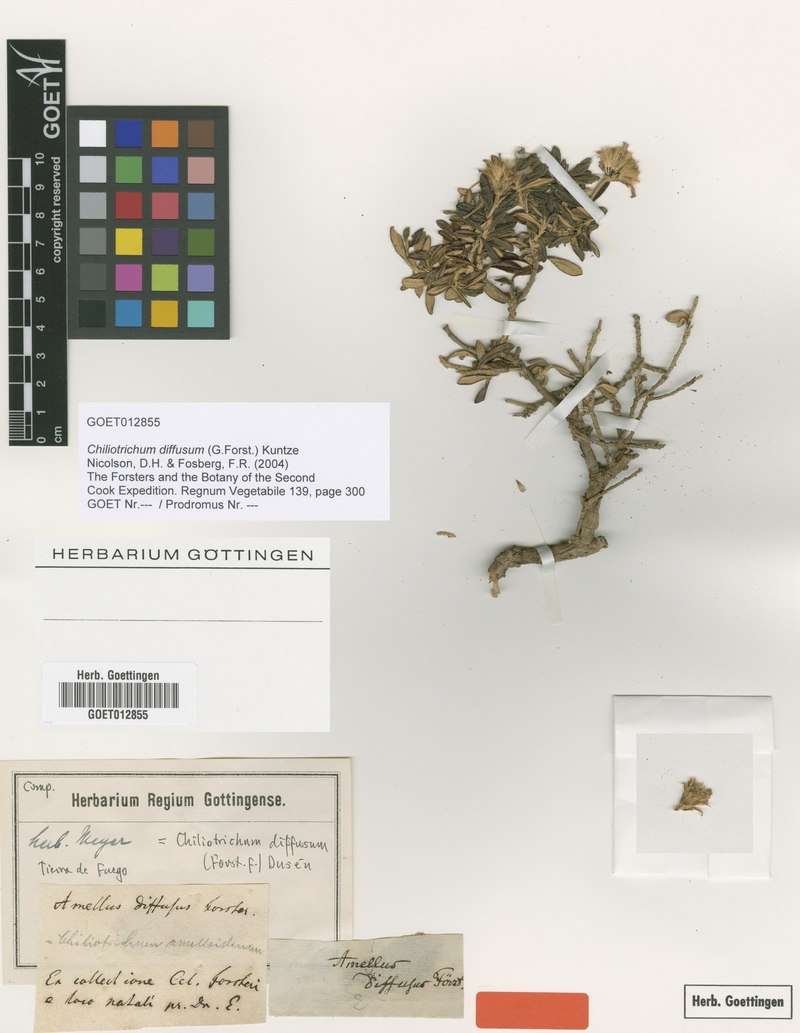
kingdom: Plantae
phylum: Tracheophyta
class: Magnoliopsida
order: Asterales
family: Asteraceae
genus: Chiliotrichum
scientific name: Chiliotrichum diffusum
